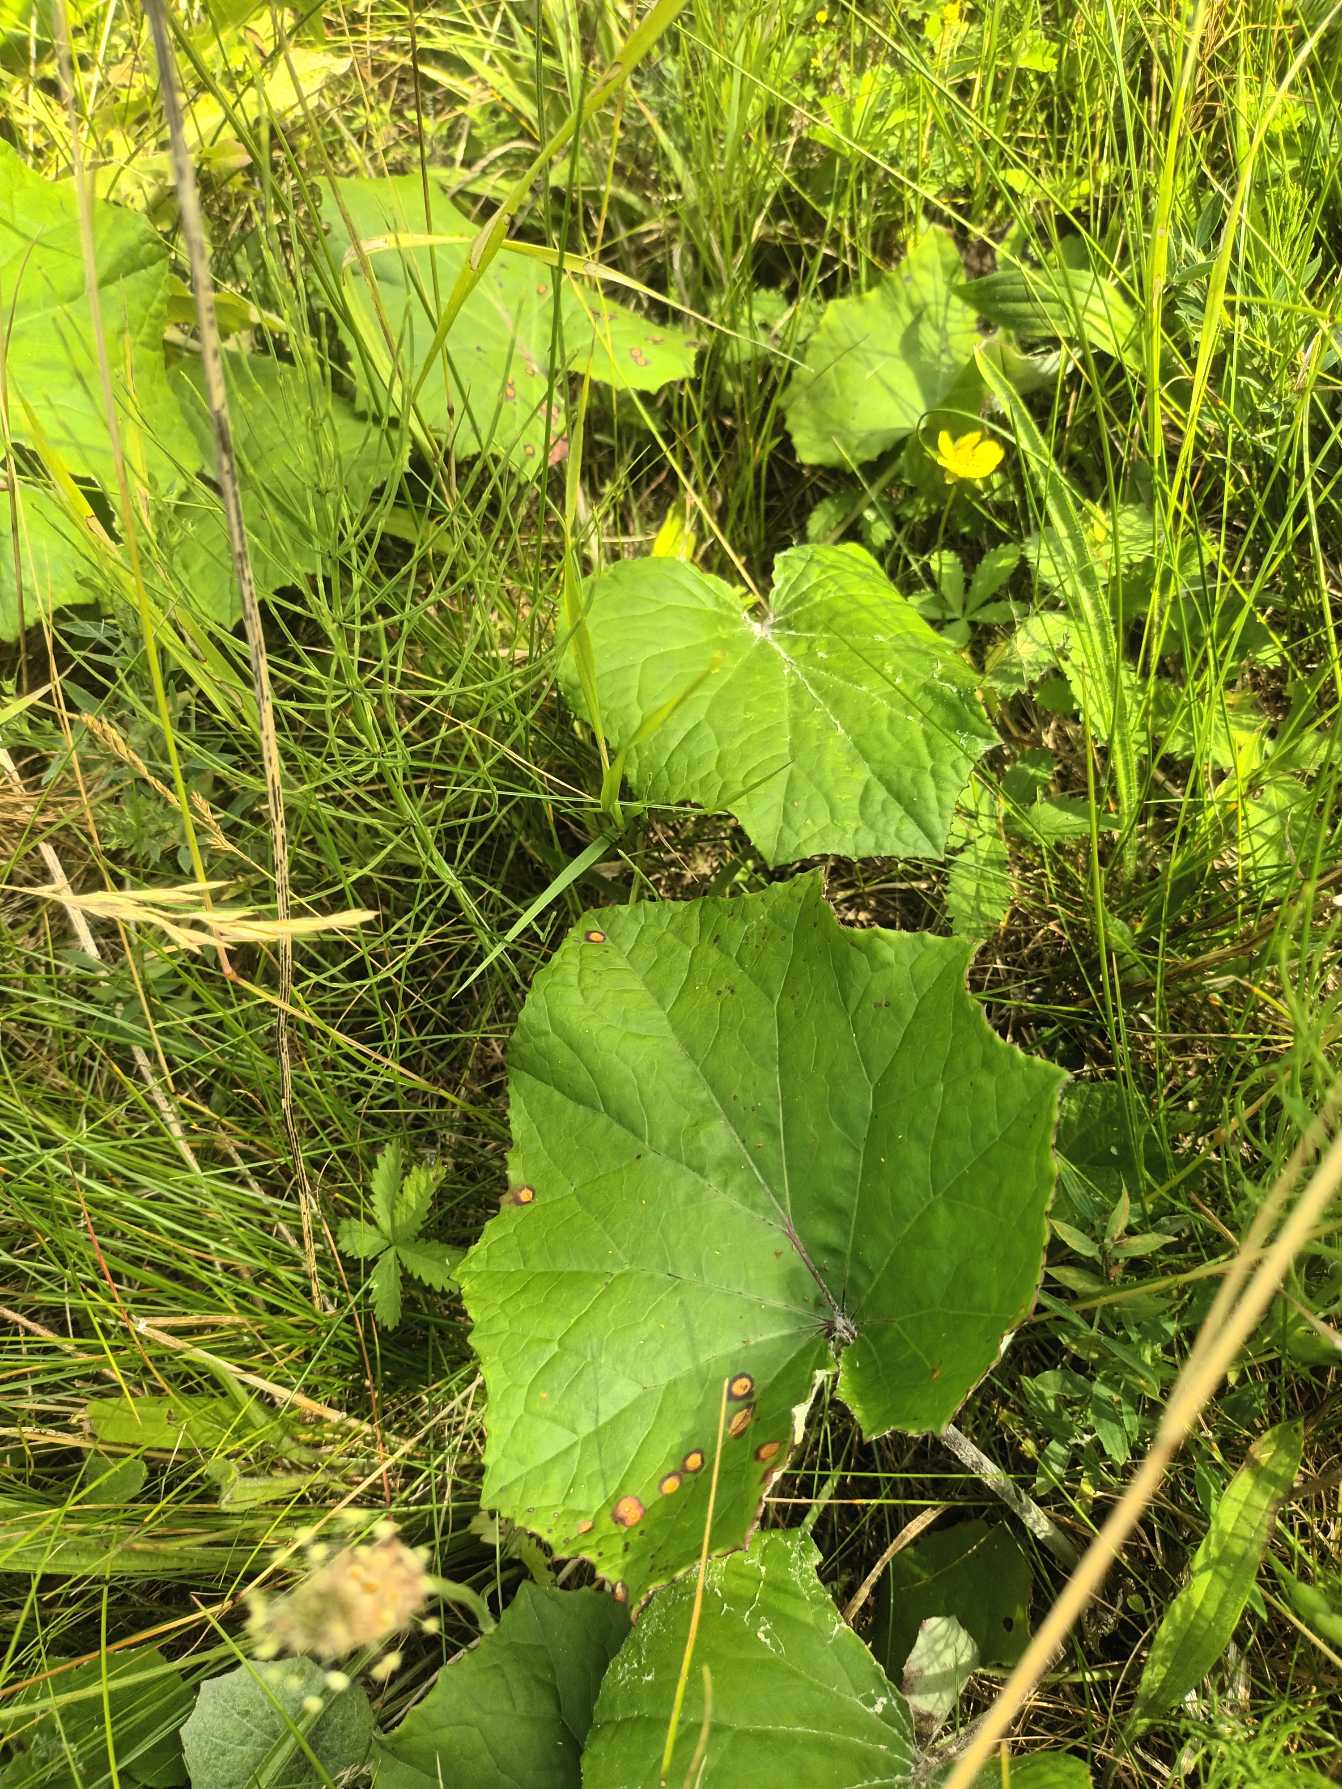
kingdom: Plantae
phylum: Tracheophyta
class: Magnoliopsida
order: Asterales
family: Asteraceae
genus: Tussilago
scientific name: Tussilago farfara
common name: Følfod
